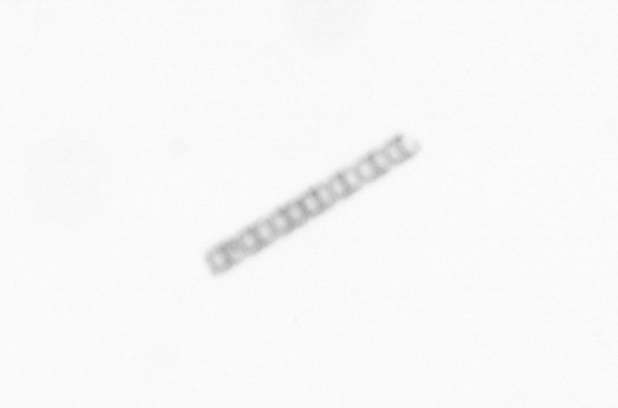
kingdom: Chromista
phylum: Ochrophyta
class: Bacillariophyceae
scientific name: Bacillariophyceae
